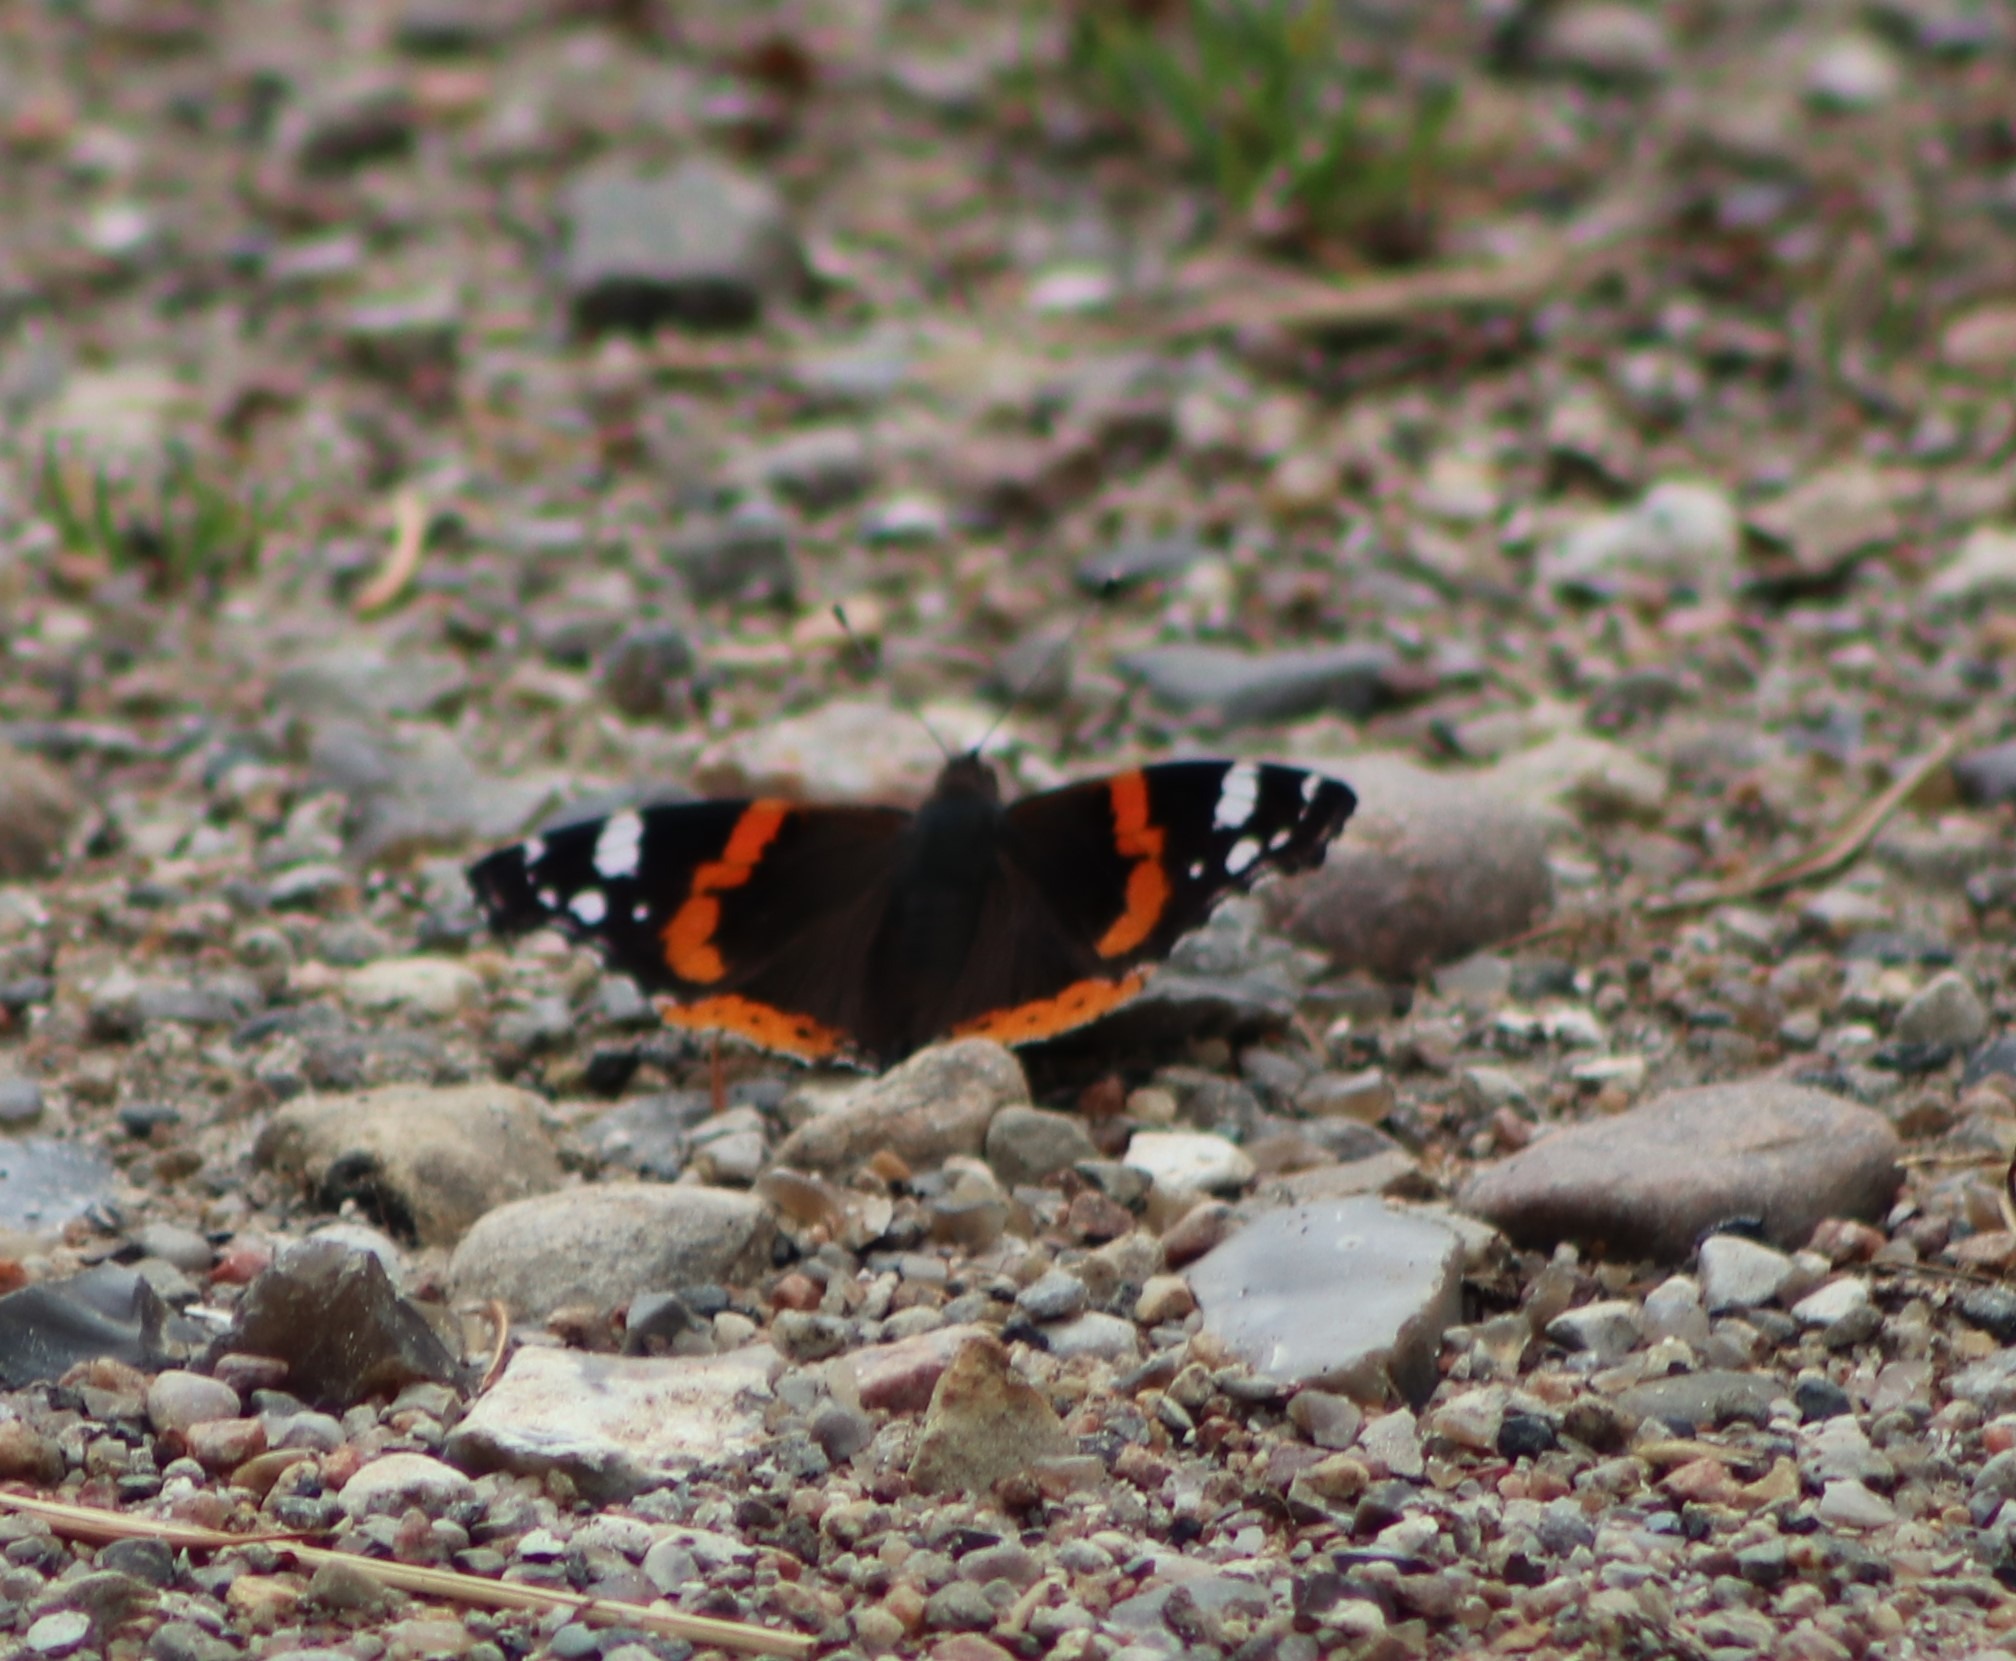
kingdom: Animalia
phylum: Arthropoda
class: Insecta
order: Lepidoptera
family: Nymphalidae
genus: Vanessa
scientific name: Vanessa atalanta
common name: Admiral
